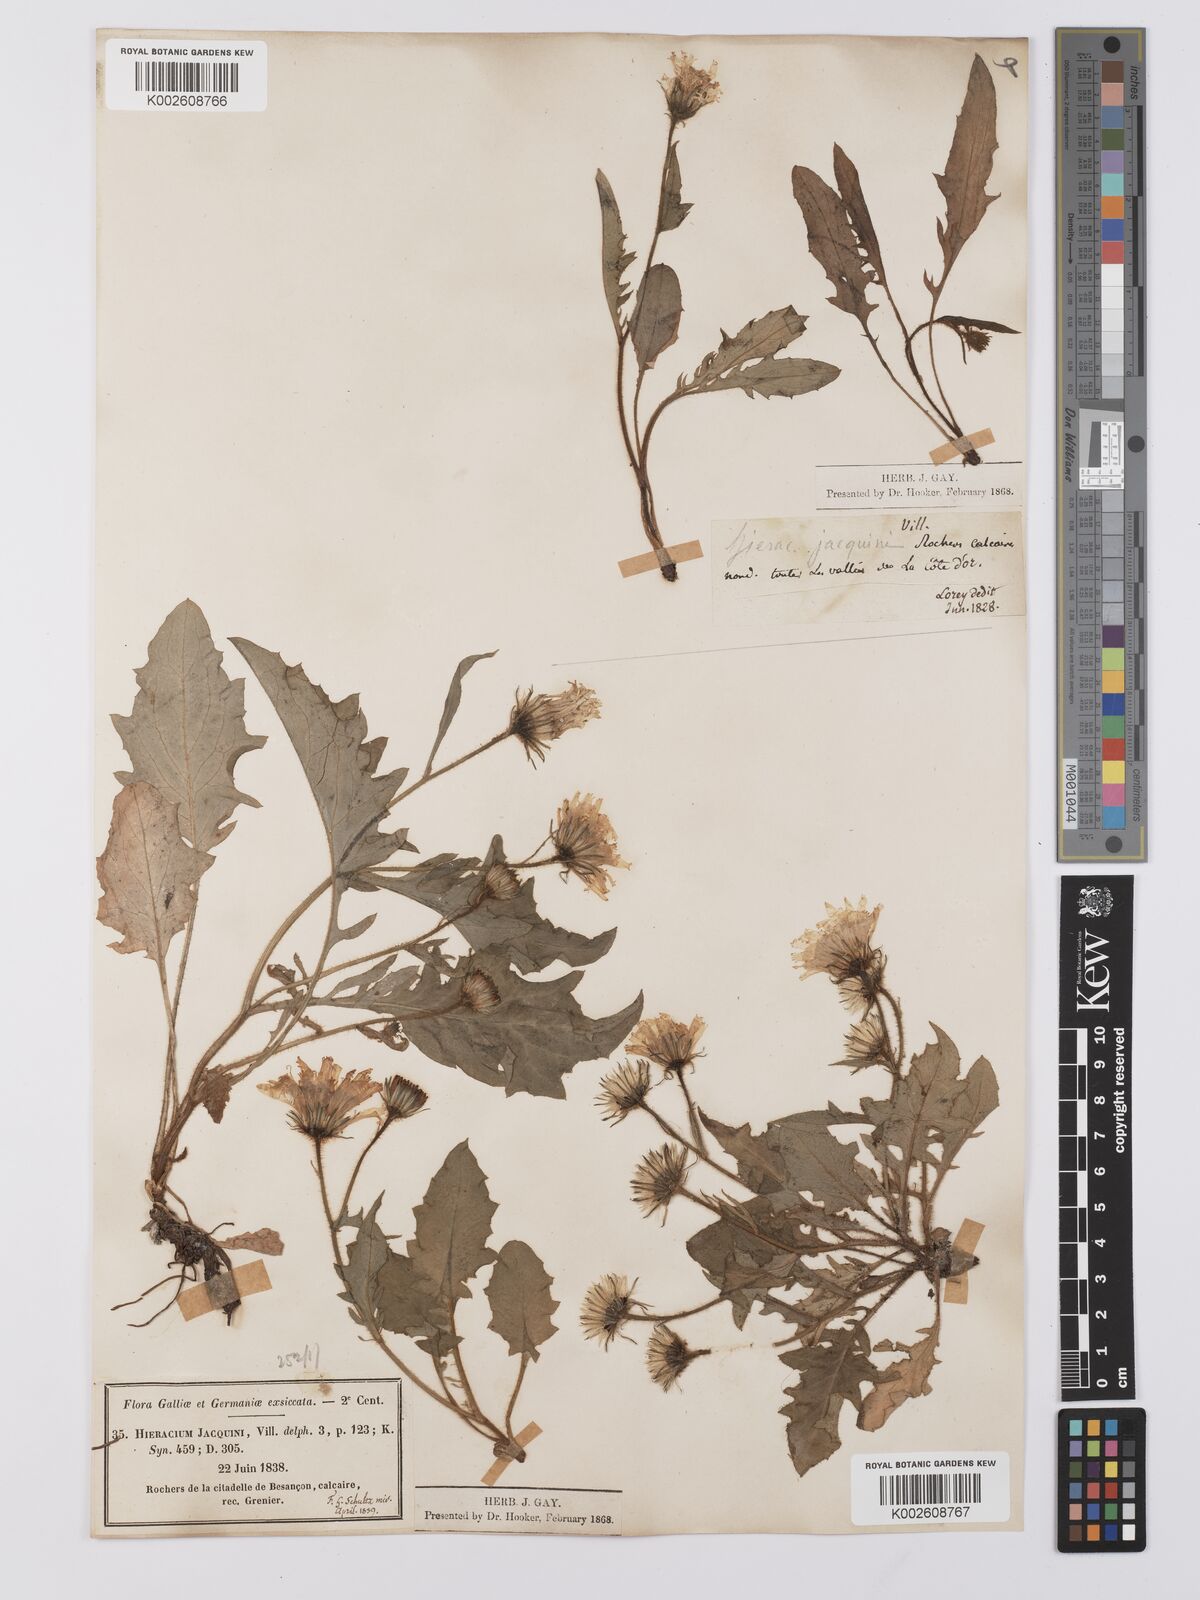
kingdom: Plantae
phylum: Tracheophyta
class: Magnoliopsida
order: Asterales
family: Asteraceae
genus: Hieracium
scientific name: Hieracium humile
